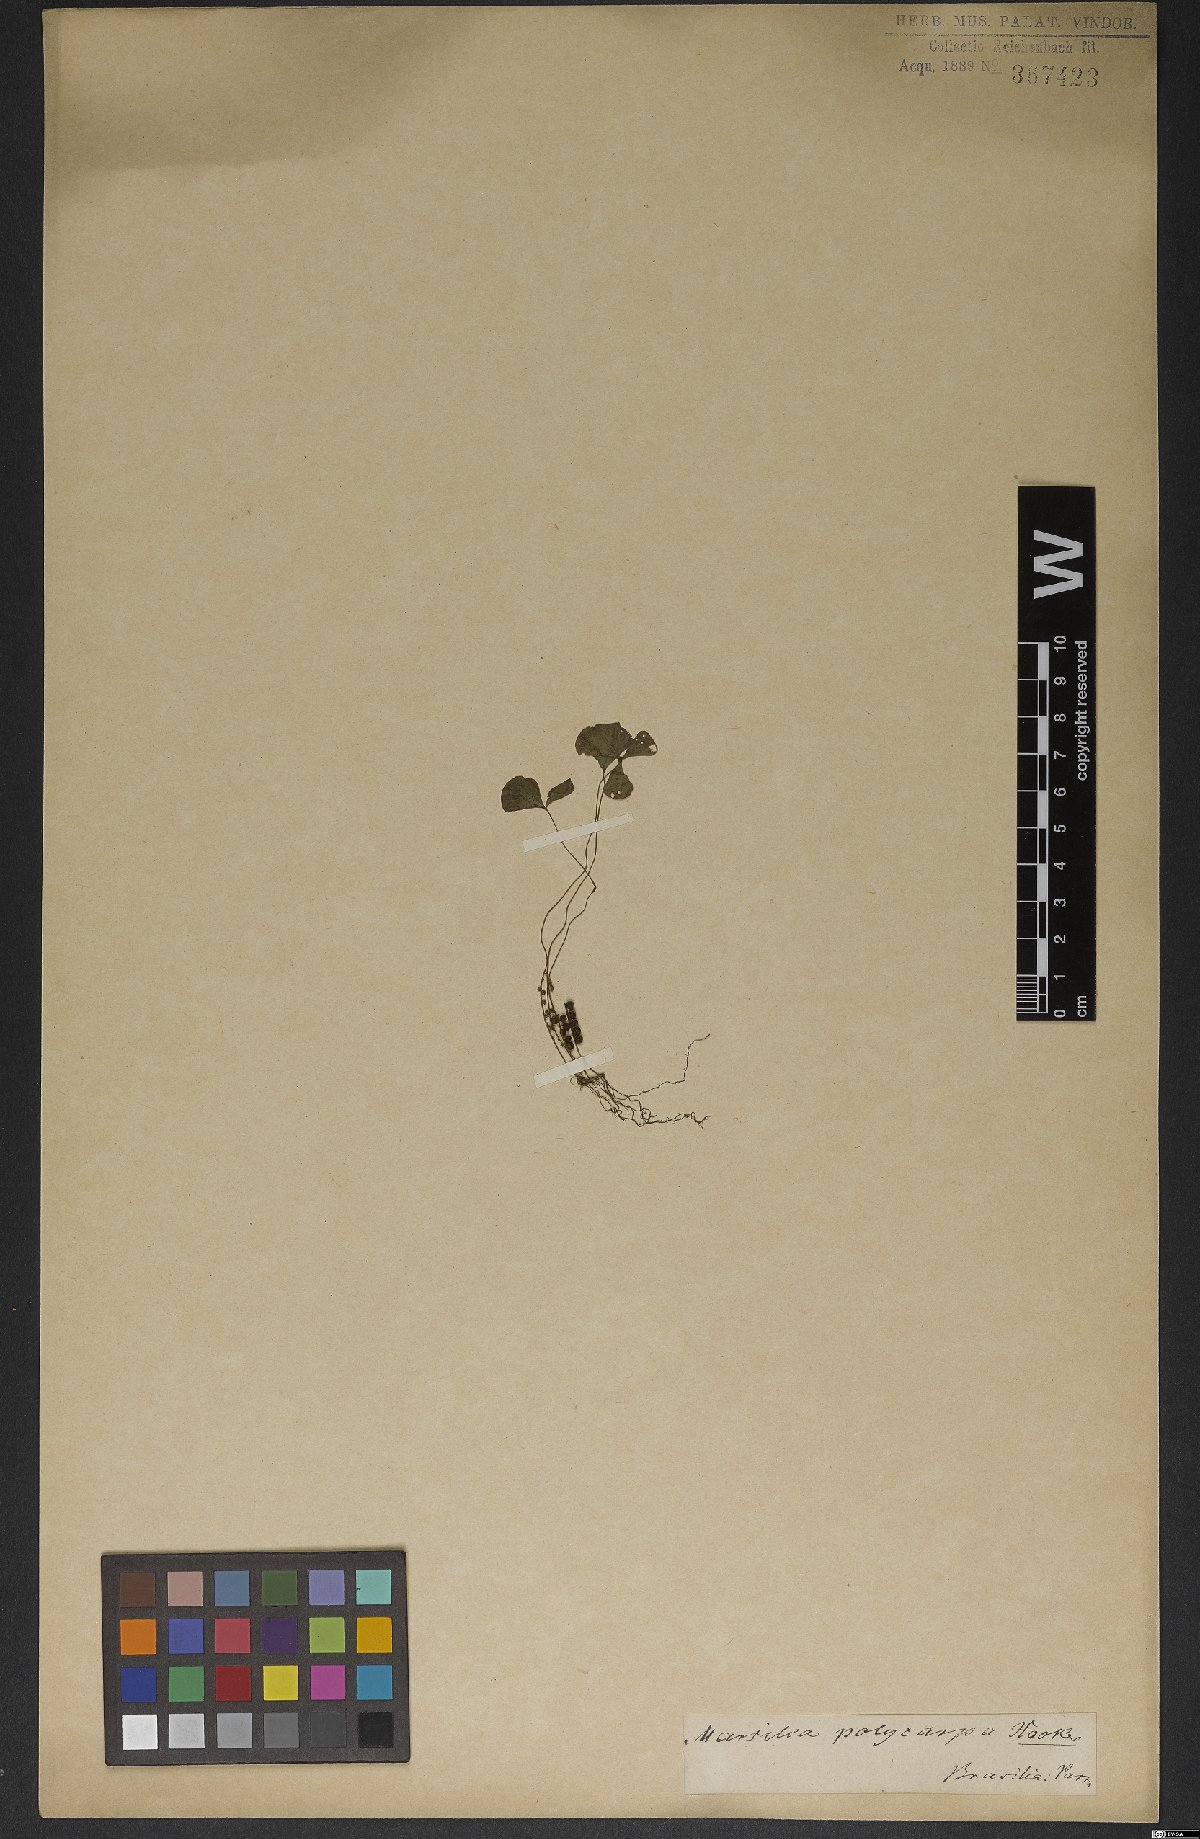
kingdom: Plantae
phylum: Tracheophyta
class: Polypodiopsida
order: Salviniales
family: Marsileaceae
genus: Marsilea
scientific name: Marsilea polycarpa
